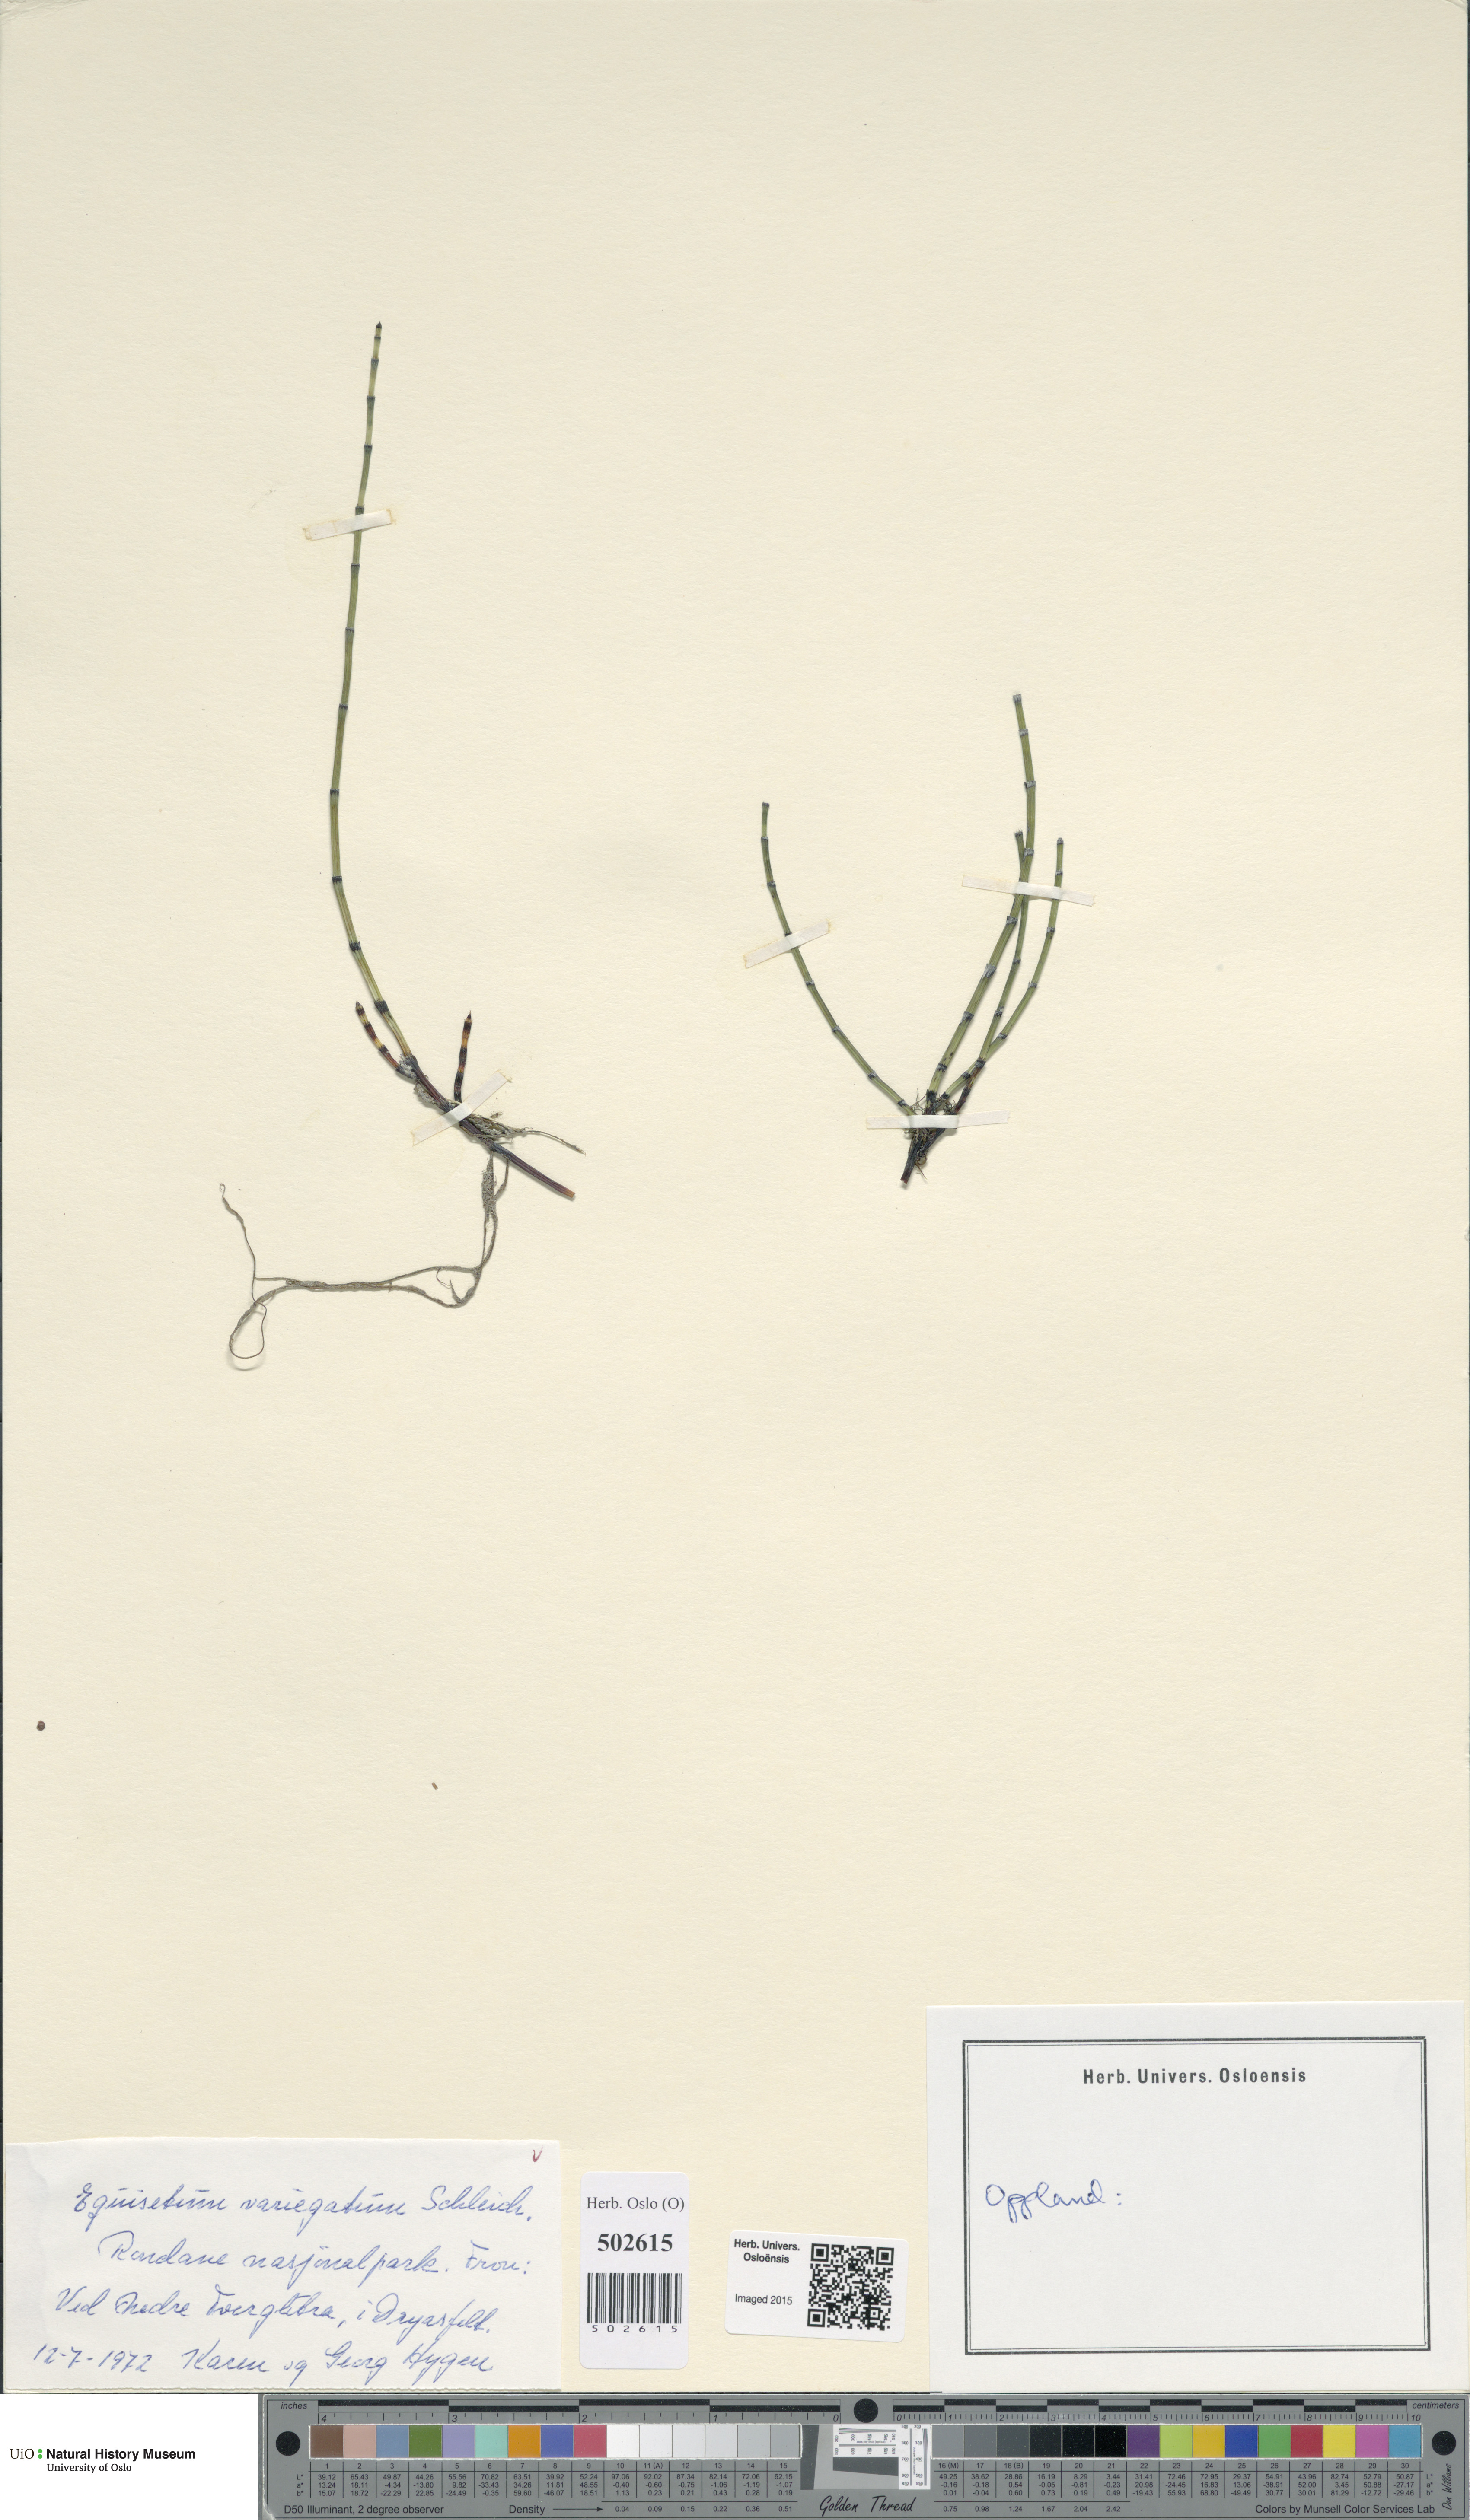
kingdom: Plantae
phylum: Tracheophyta
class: Polypodiopsida
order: Equisetales
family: Equisetaceae
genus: Equisetum
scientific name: Equisetum variegatum
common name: Variegated horsetail
